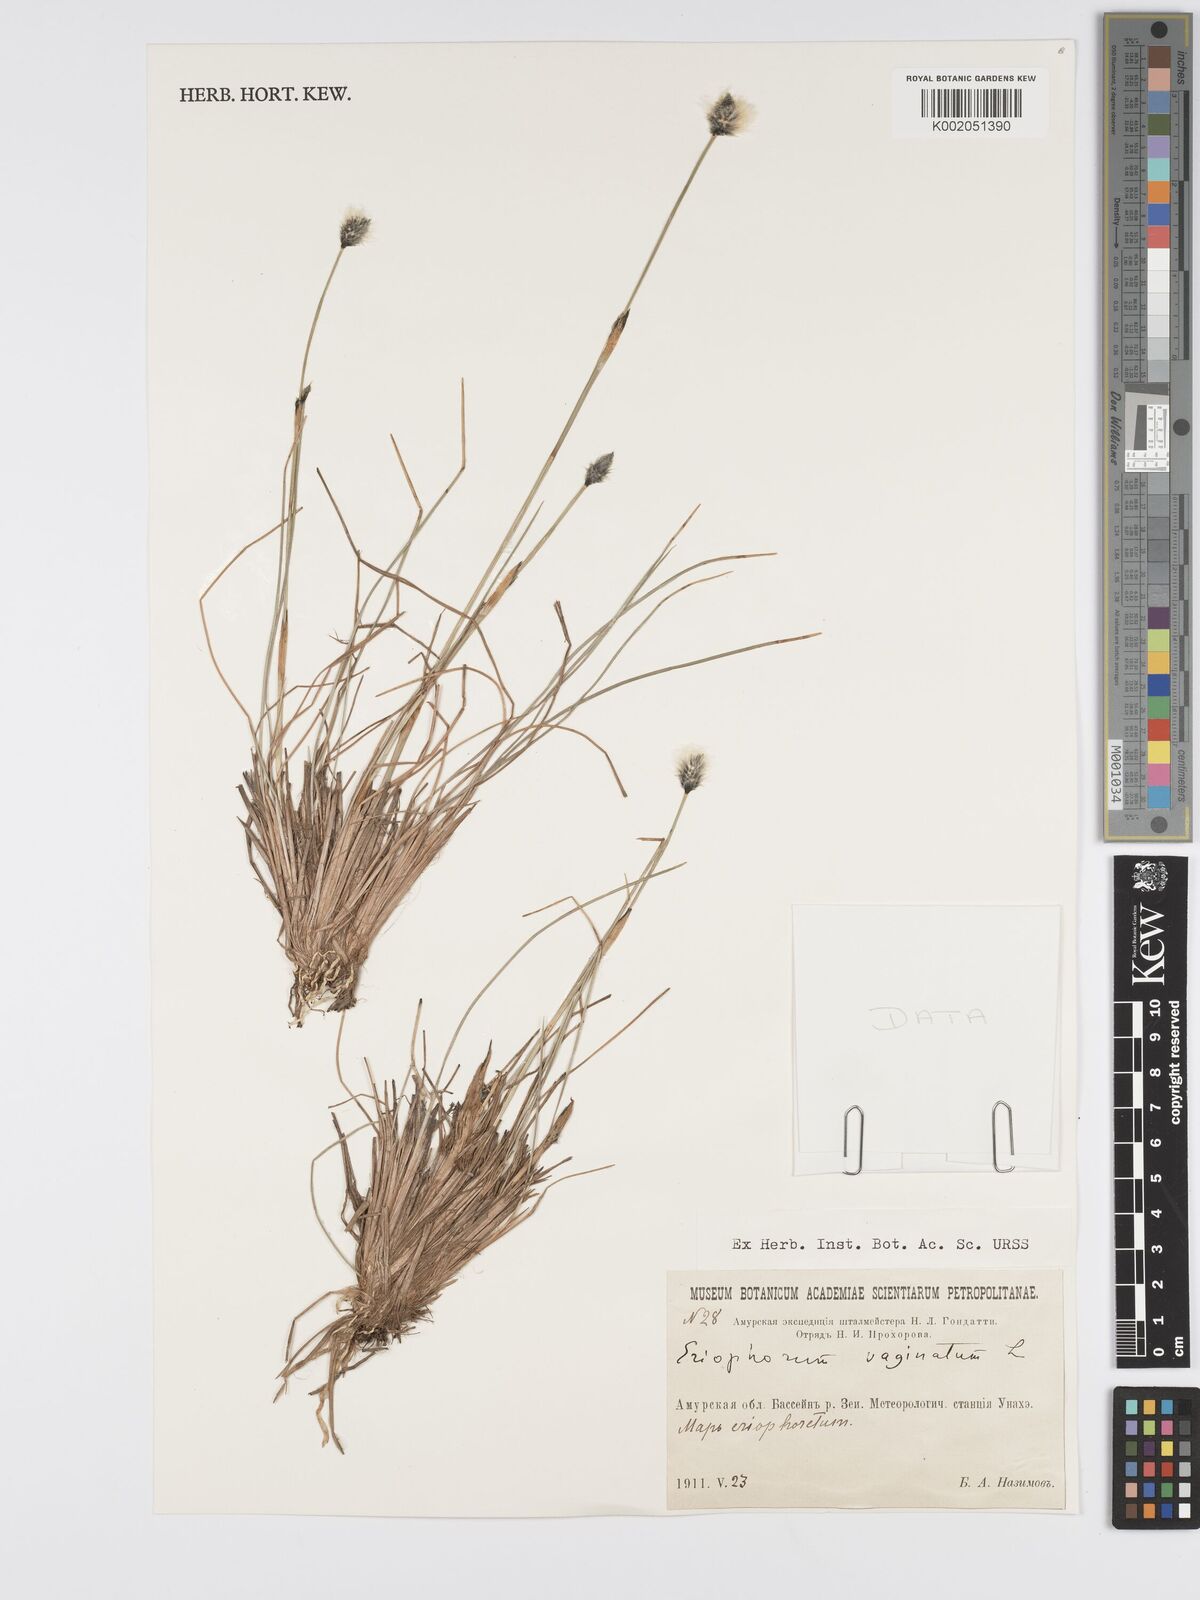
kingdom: Plantae
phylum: Tracheophyta
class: Liliopsida
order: Poales
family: Cyperaceae
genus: Eriophorum
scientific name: Eriophorum vaginatum
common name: Hare's-tail cottongrass
